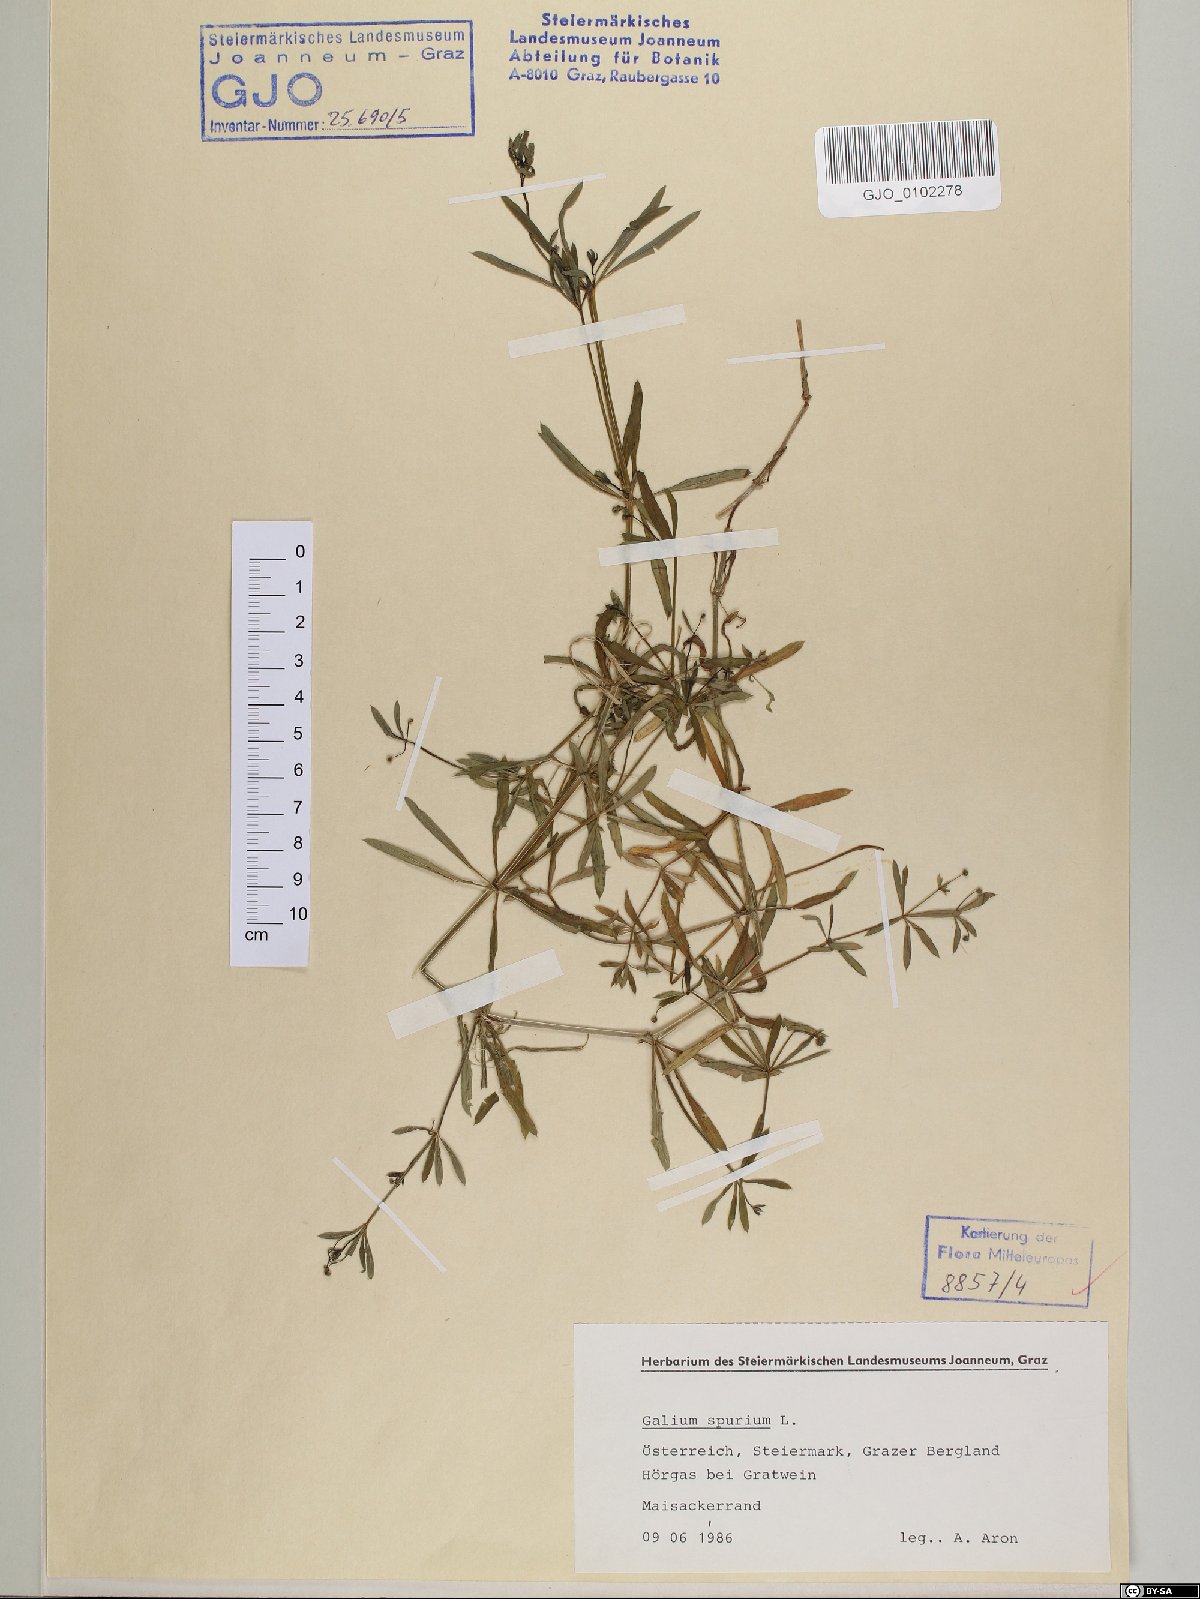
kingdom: Plantae
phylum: Tracheophyta
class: Magnoliopsida
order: Gentianales
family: Rubiaceae
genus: Galium
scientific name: Galium spurium
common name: False cleavers
